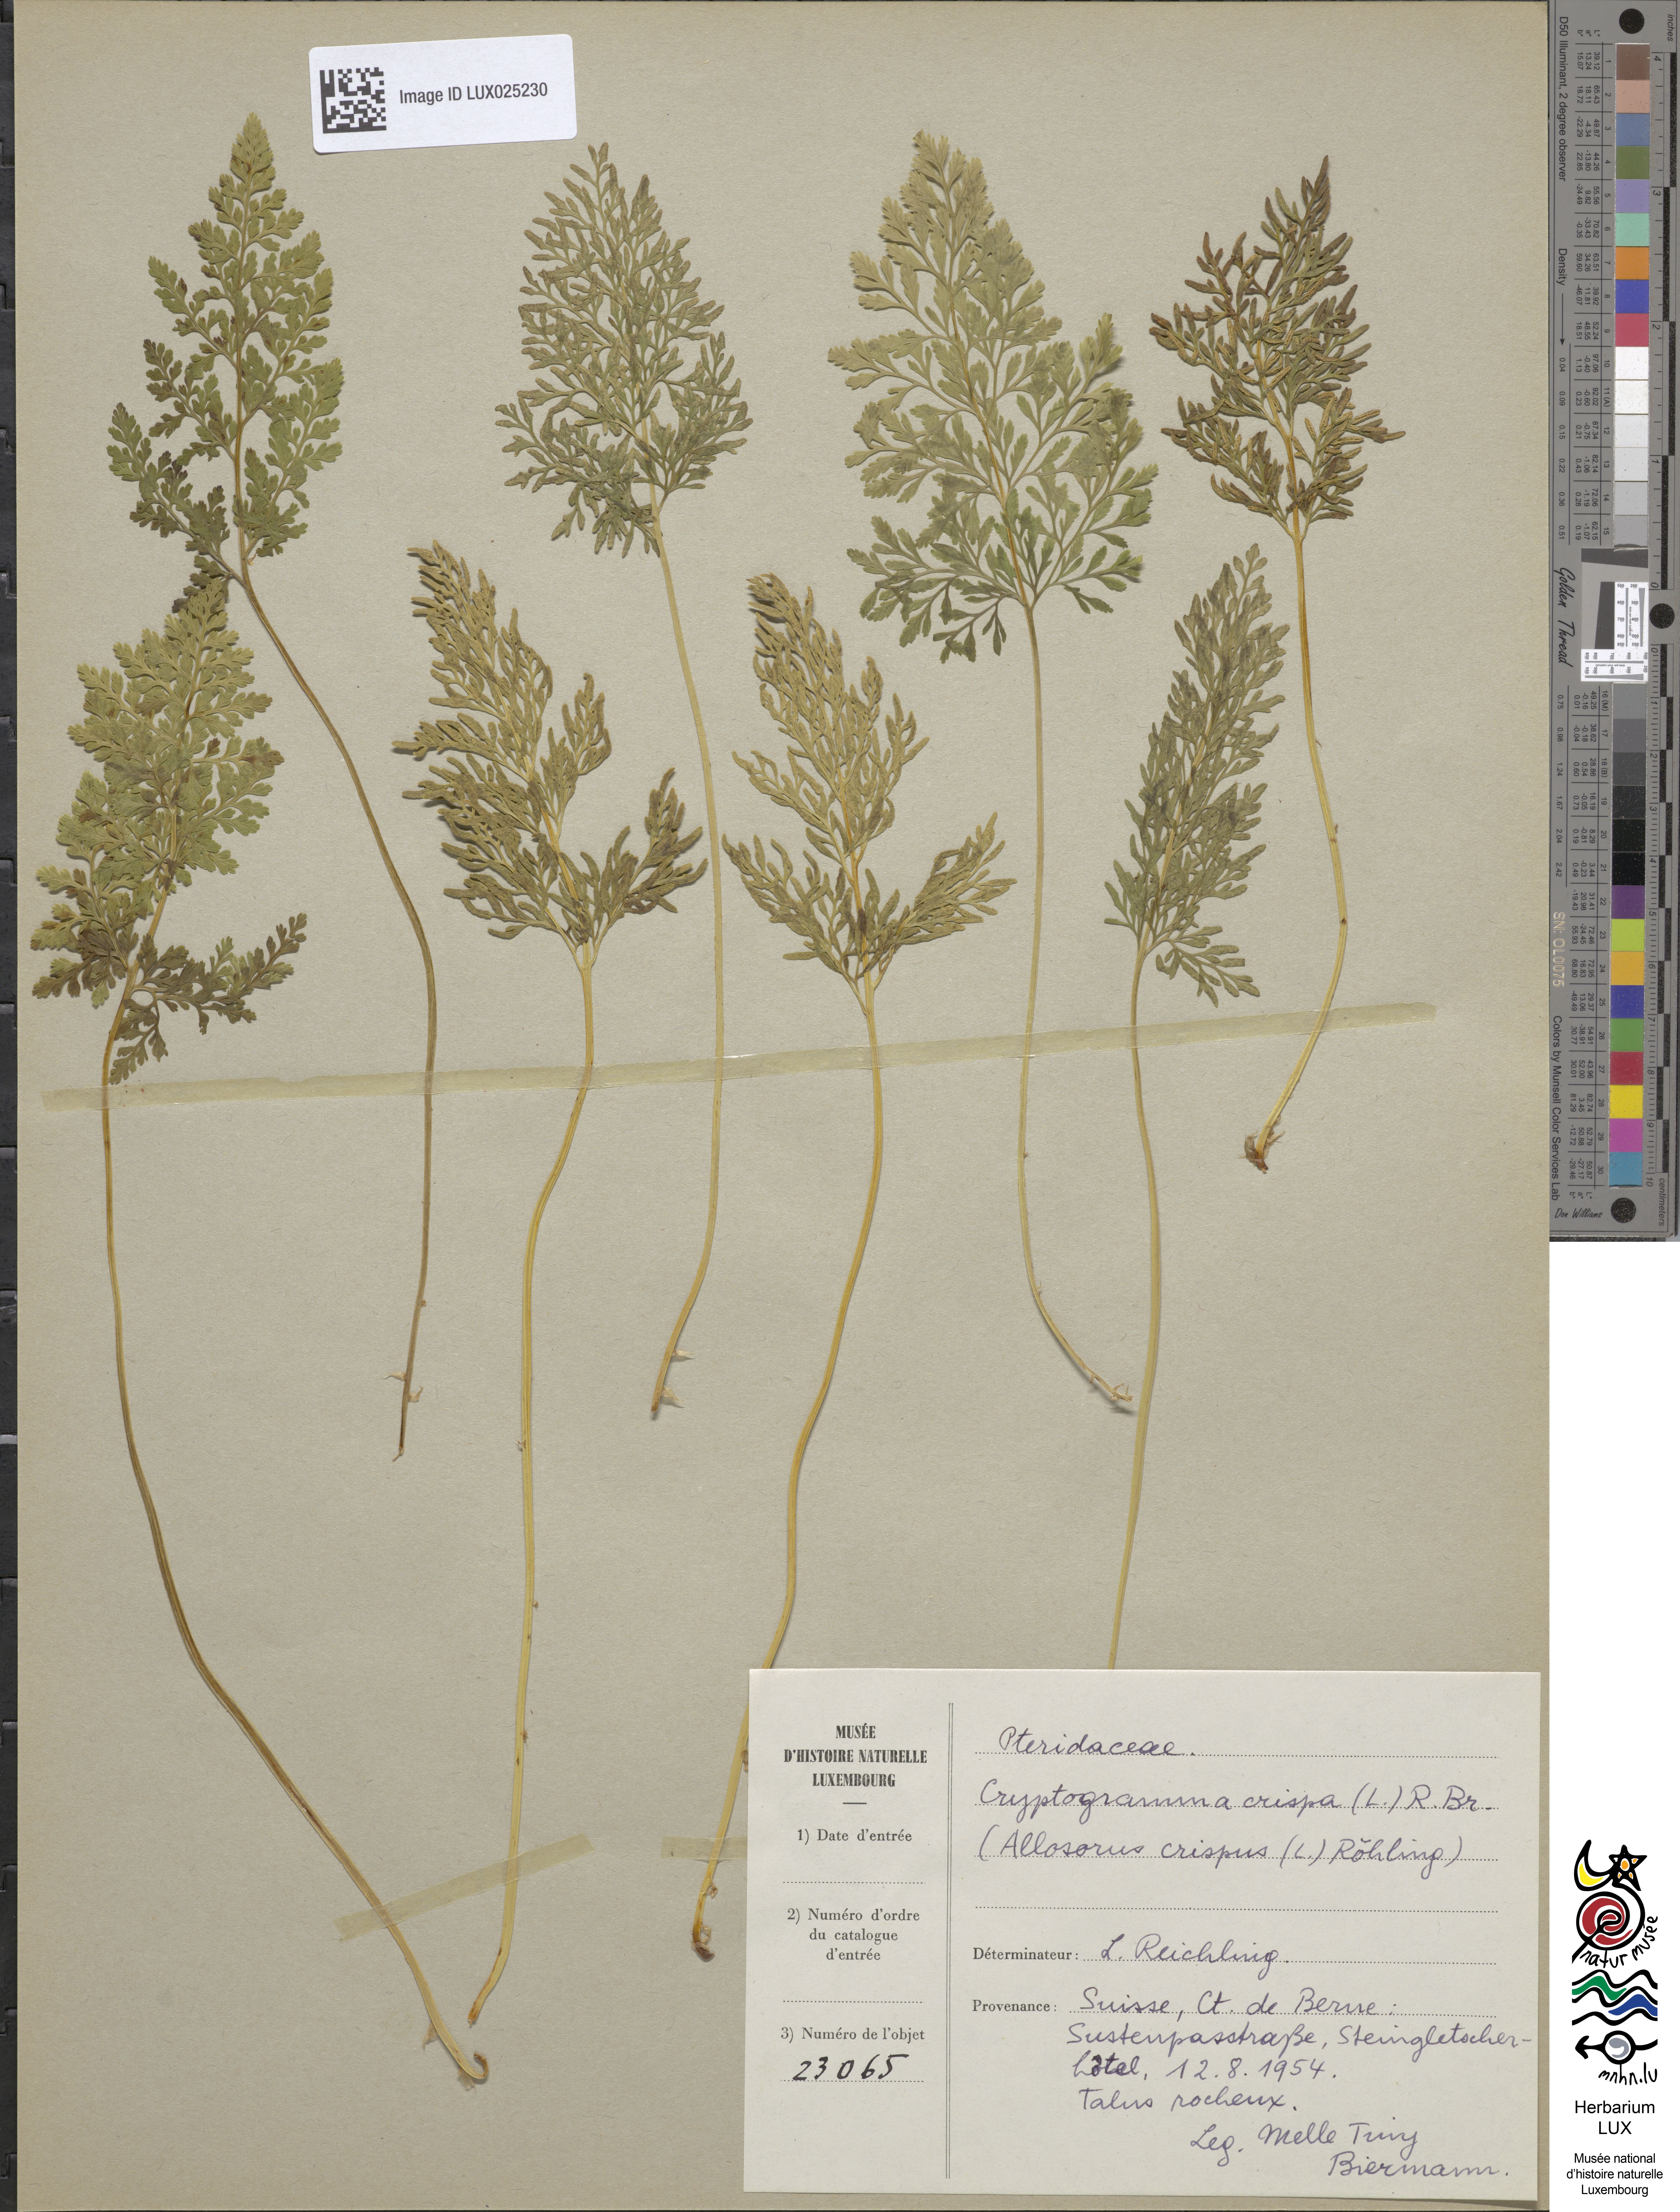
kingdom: Plantae
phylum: Tracheophyta
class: Polypodiopsida
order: Polypodiales
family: Pteridaceae
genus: Cryptogramma
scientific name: Cryptogramma crispa
